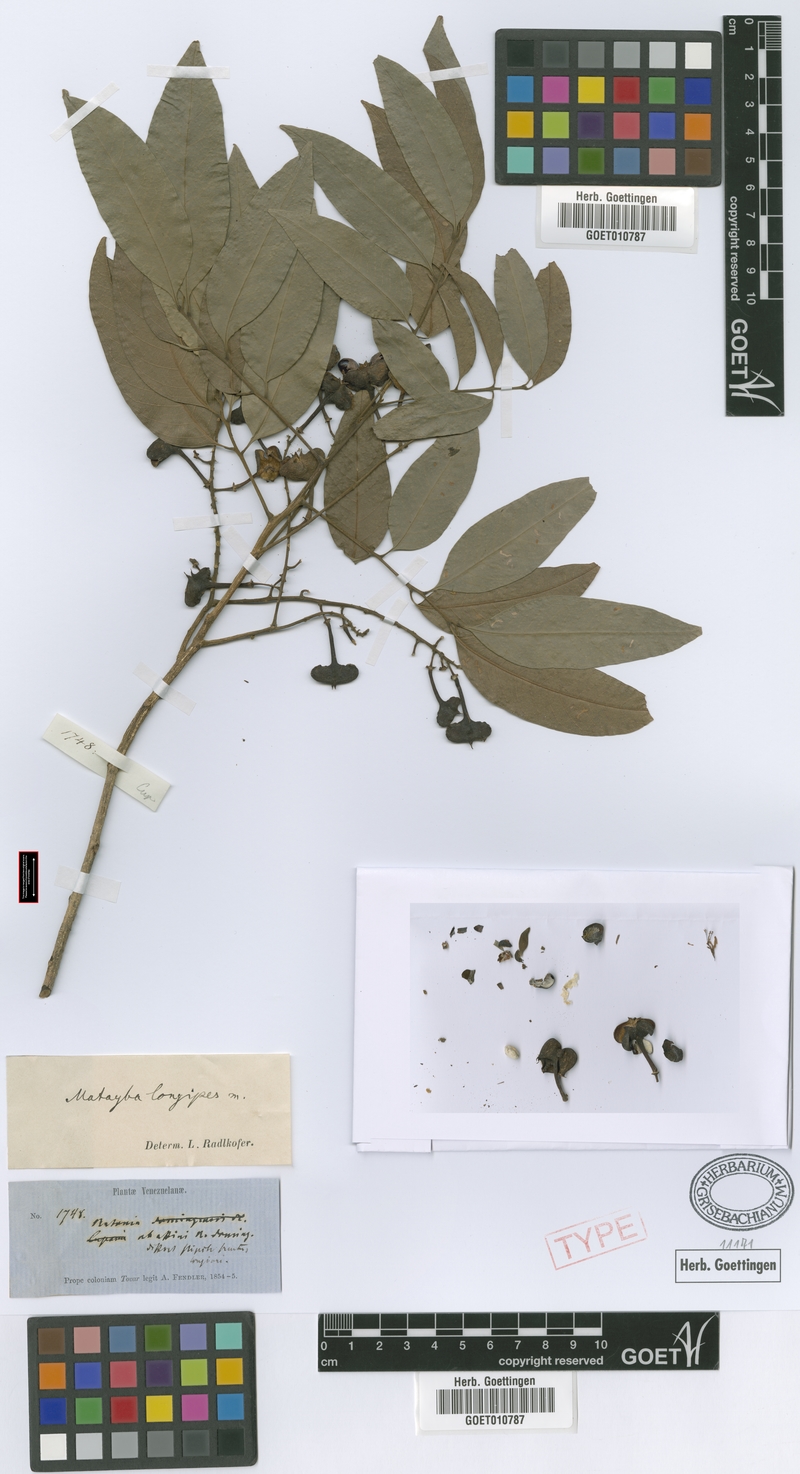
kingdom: Plantae
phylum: Tracheophyta
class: Magnoliopsida
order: Sapindales
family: Sapindaceae
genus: Matayba
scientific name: Matayba longipes
